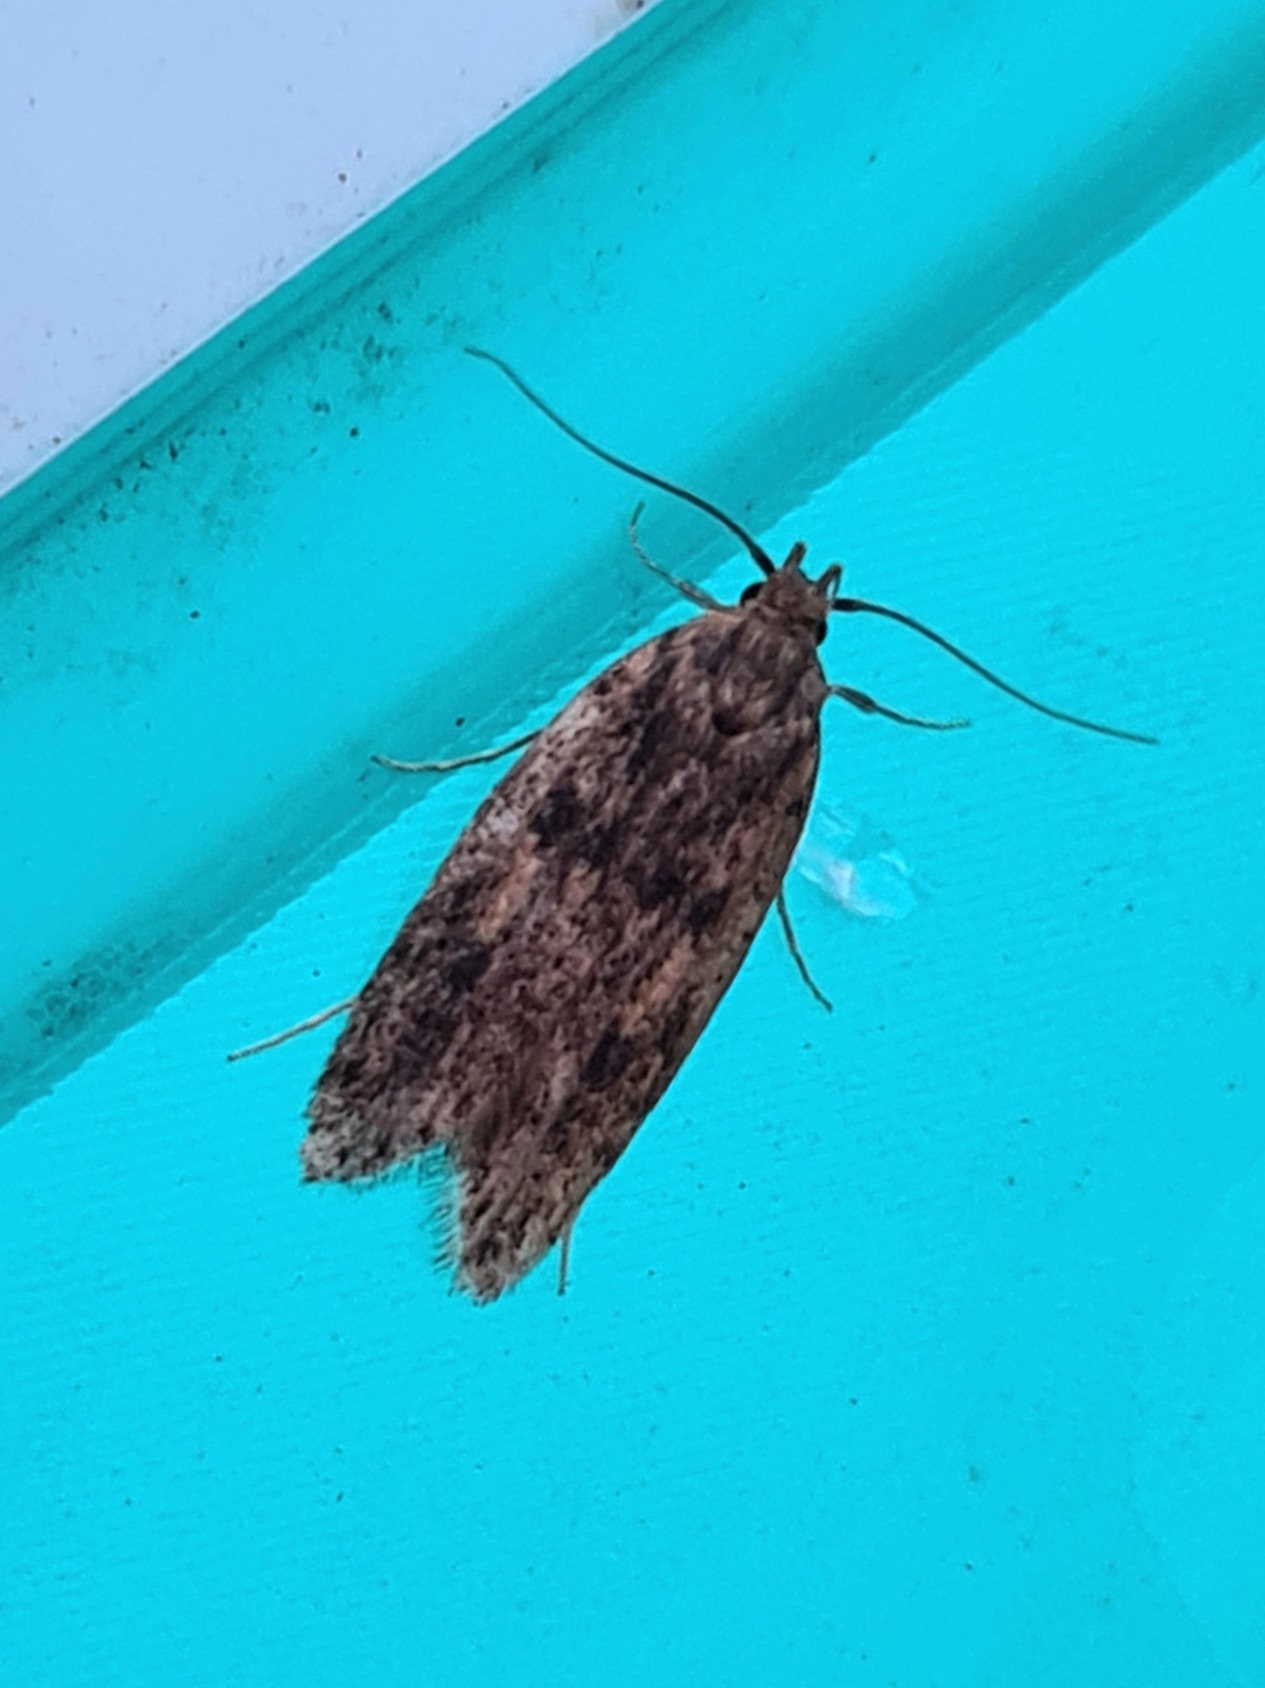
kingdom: Animalia
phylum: Arthropoda
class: Insecta
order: Lepidoptera
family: Oecophoridae
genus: Hofmannophila
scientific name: Hofmannophila pseudospretella
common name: Frømøl
